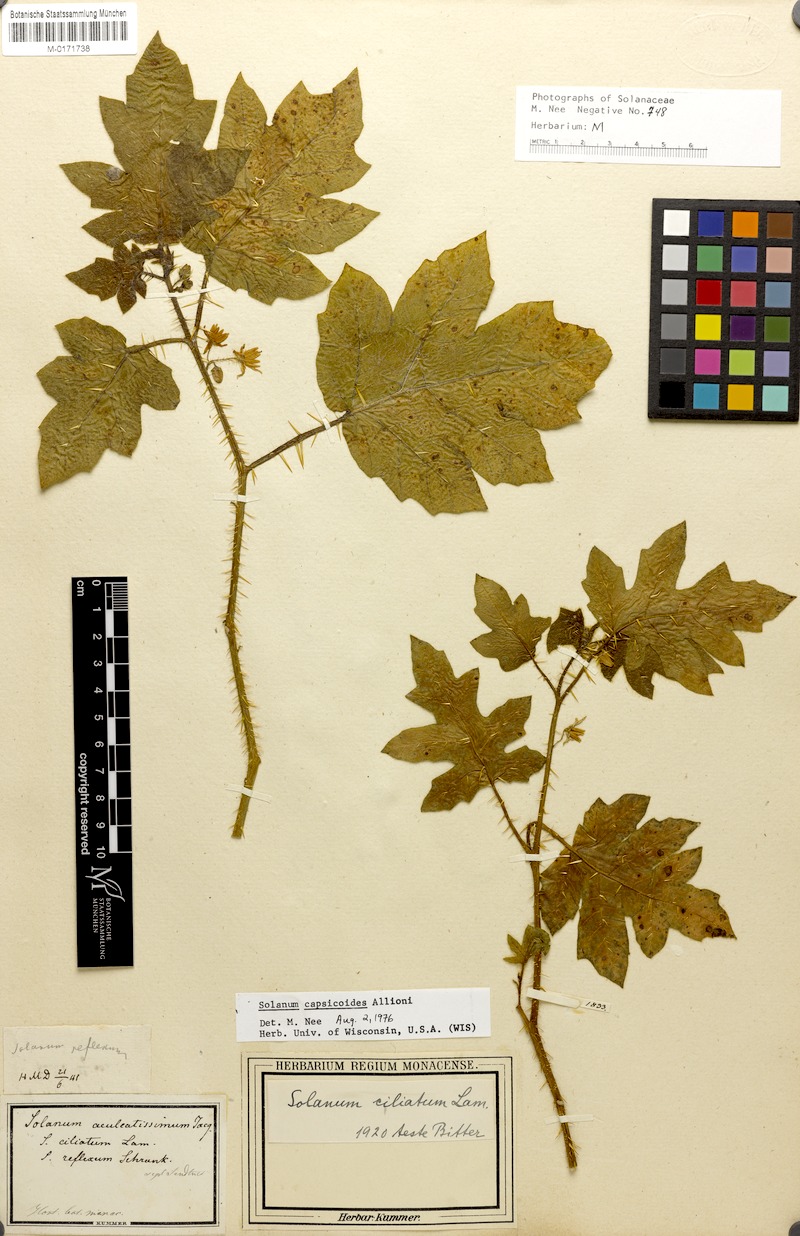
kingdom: Plantae
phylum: Tracheophyta
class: Magnoliopsida
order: Solanales
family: Solanaceae
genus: Solanum
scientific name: Solanum capsicoides
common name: Cockroach berry
